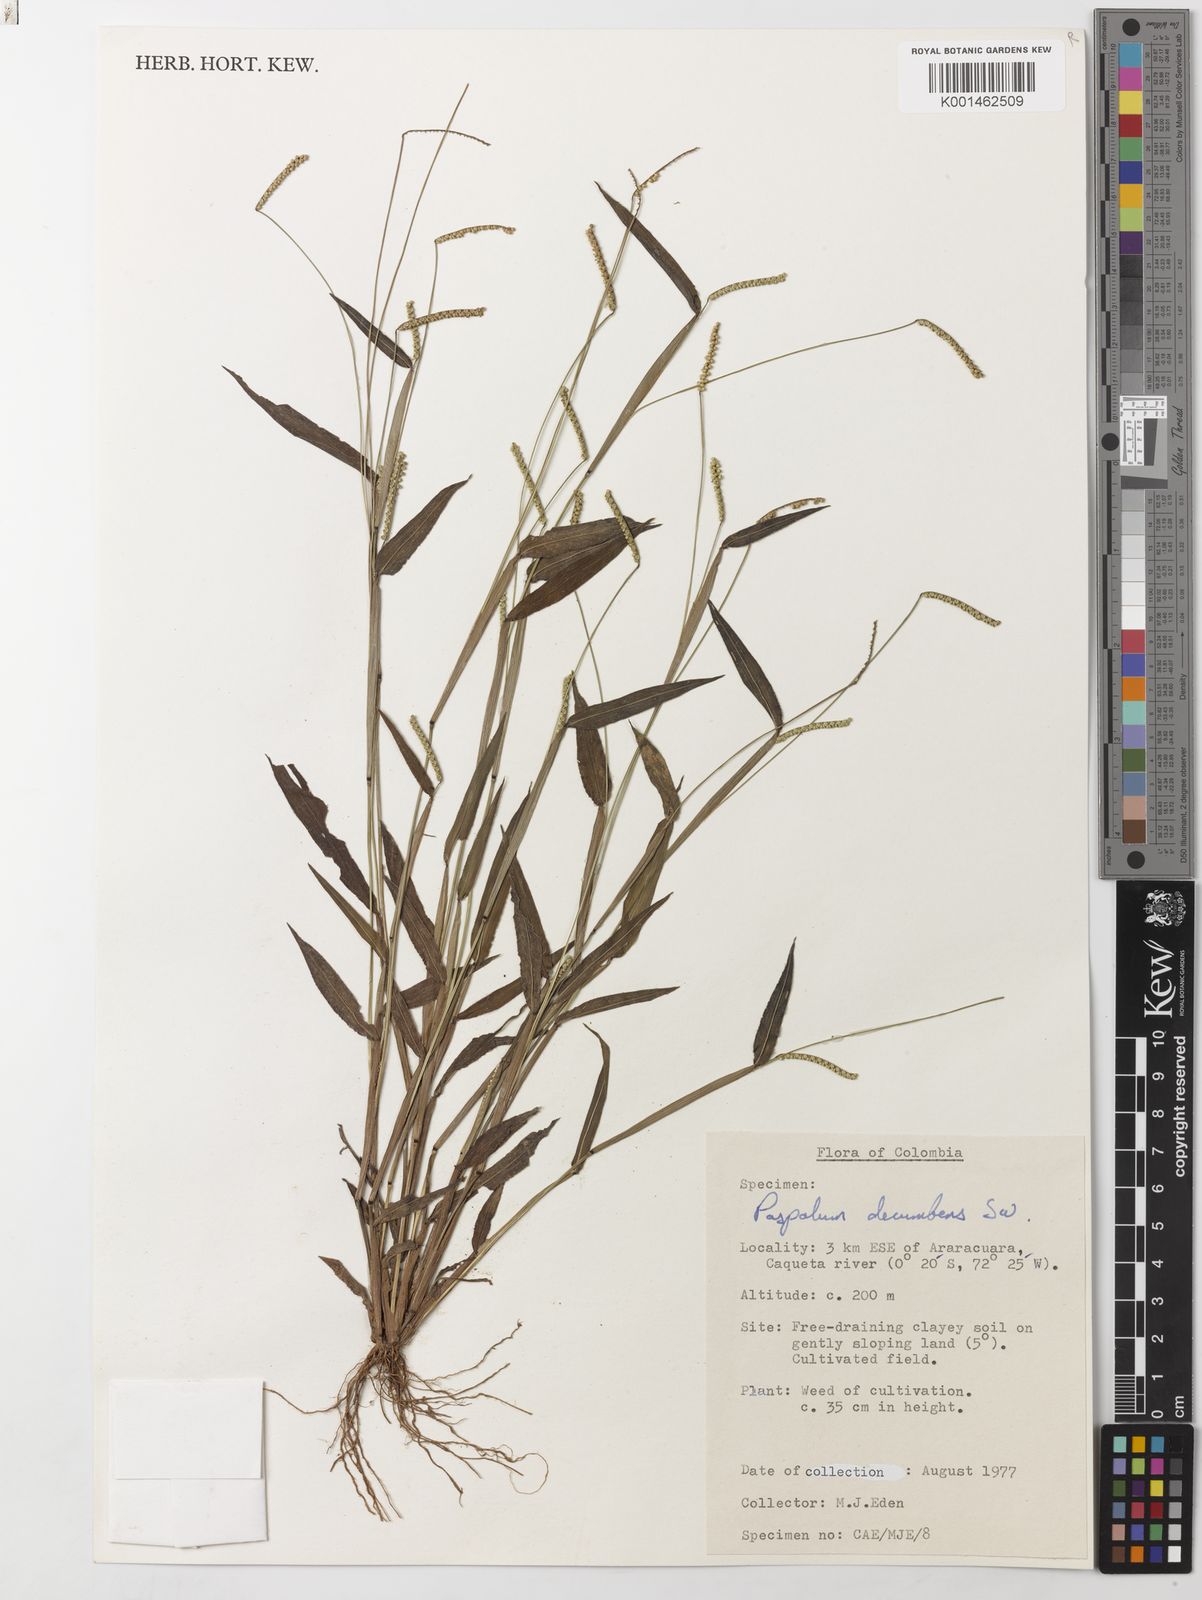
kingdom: Plantae
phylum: Tracheophyta
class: Liliopsida
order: Poales
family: Poaceae
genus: Paspalum
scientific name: Paspalum decumbens
